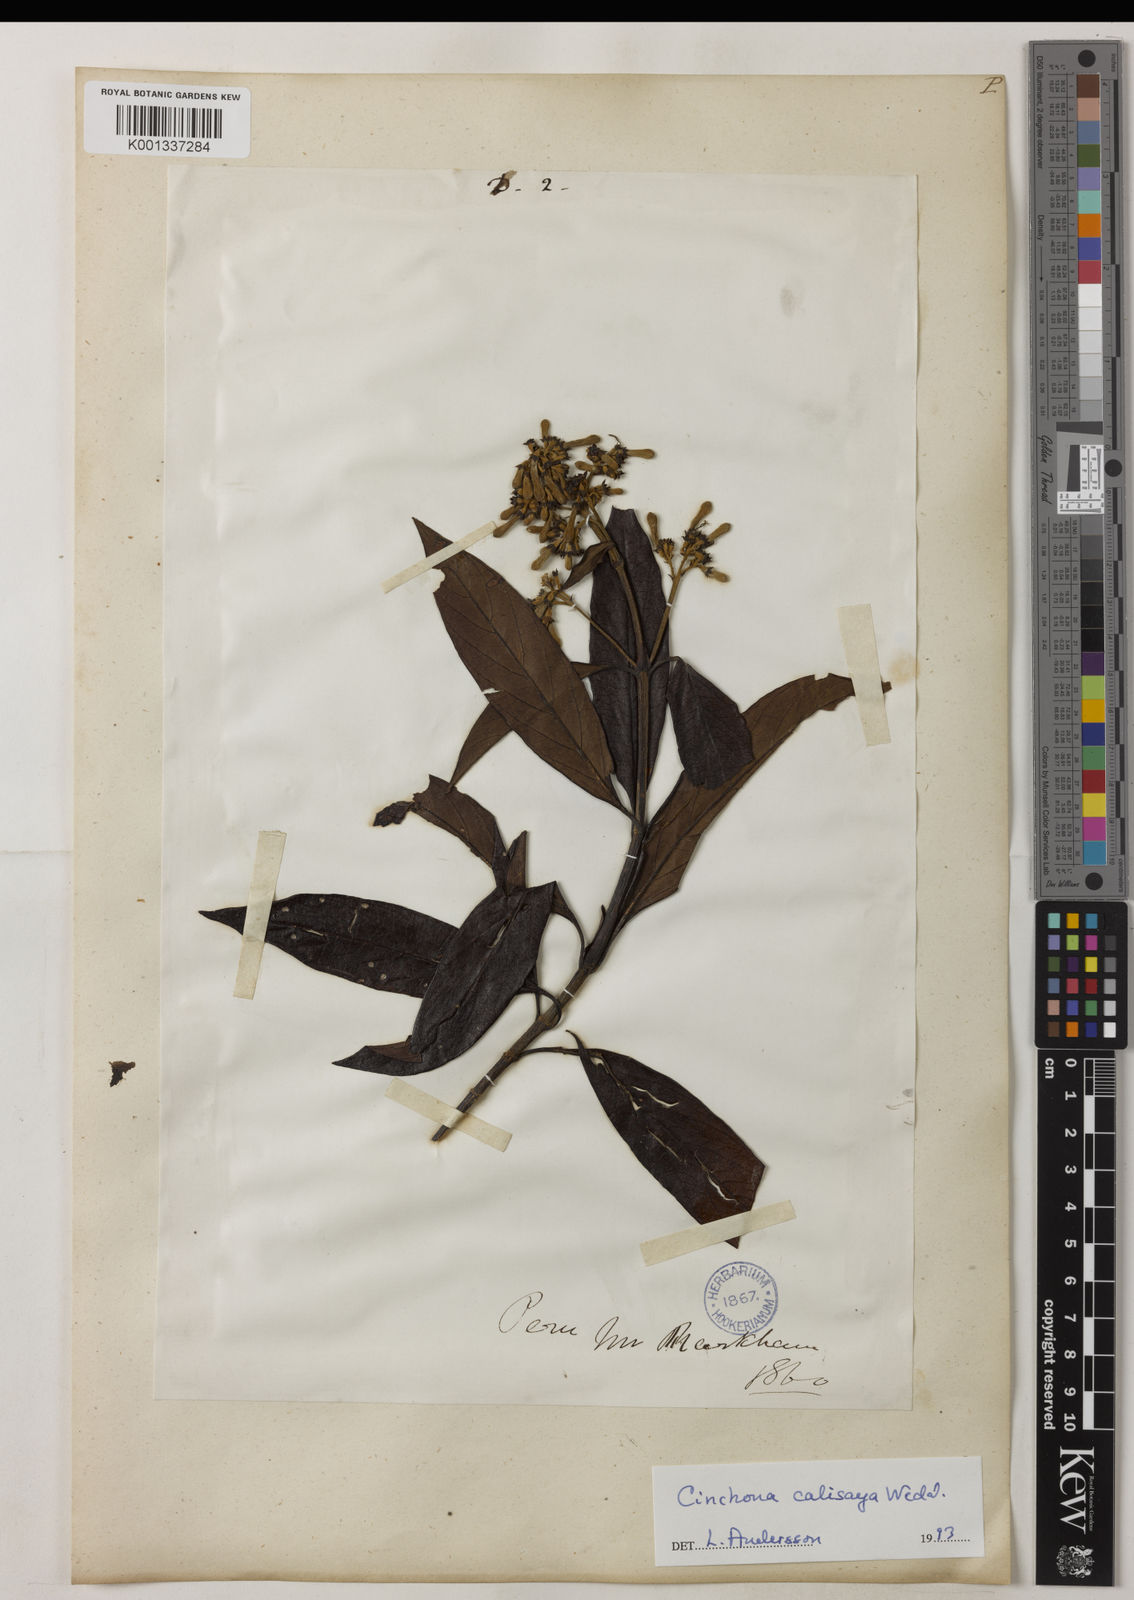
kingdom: Plantae
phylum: Tracheophyta
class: Magnoliopsida
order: Gentianales
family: Rubiaceae
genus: Cinchona
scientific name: Cinchona calisaya
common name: Ledgerbark
